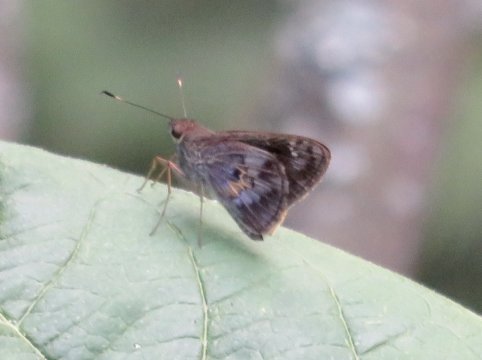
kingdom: Animalia
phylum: Arthropoda
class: Insecta
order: Lepidoptera
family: Hesperiidae
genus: Phanis
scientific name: Phanis aletes
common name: Jeweled Skipper
